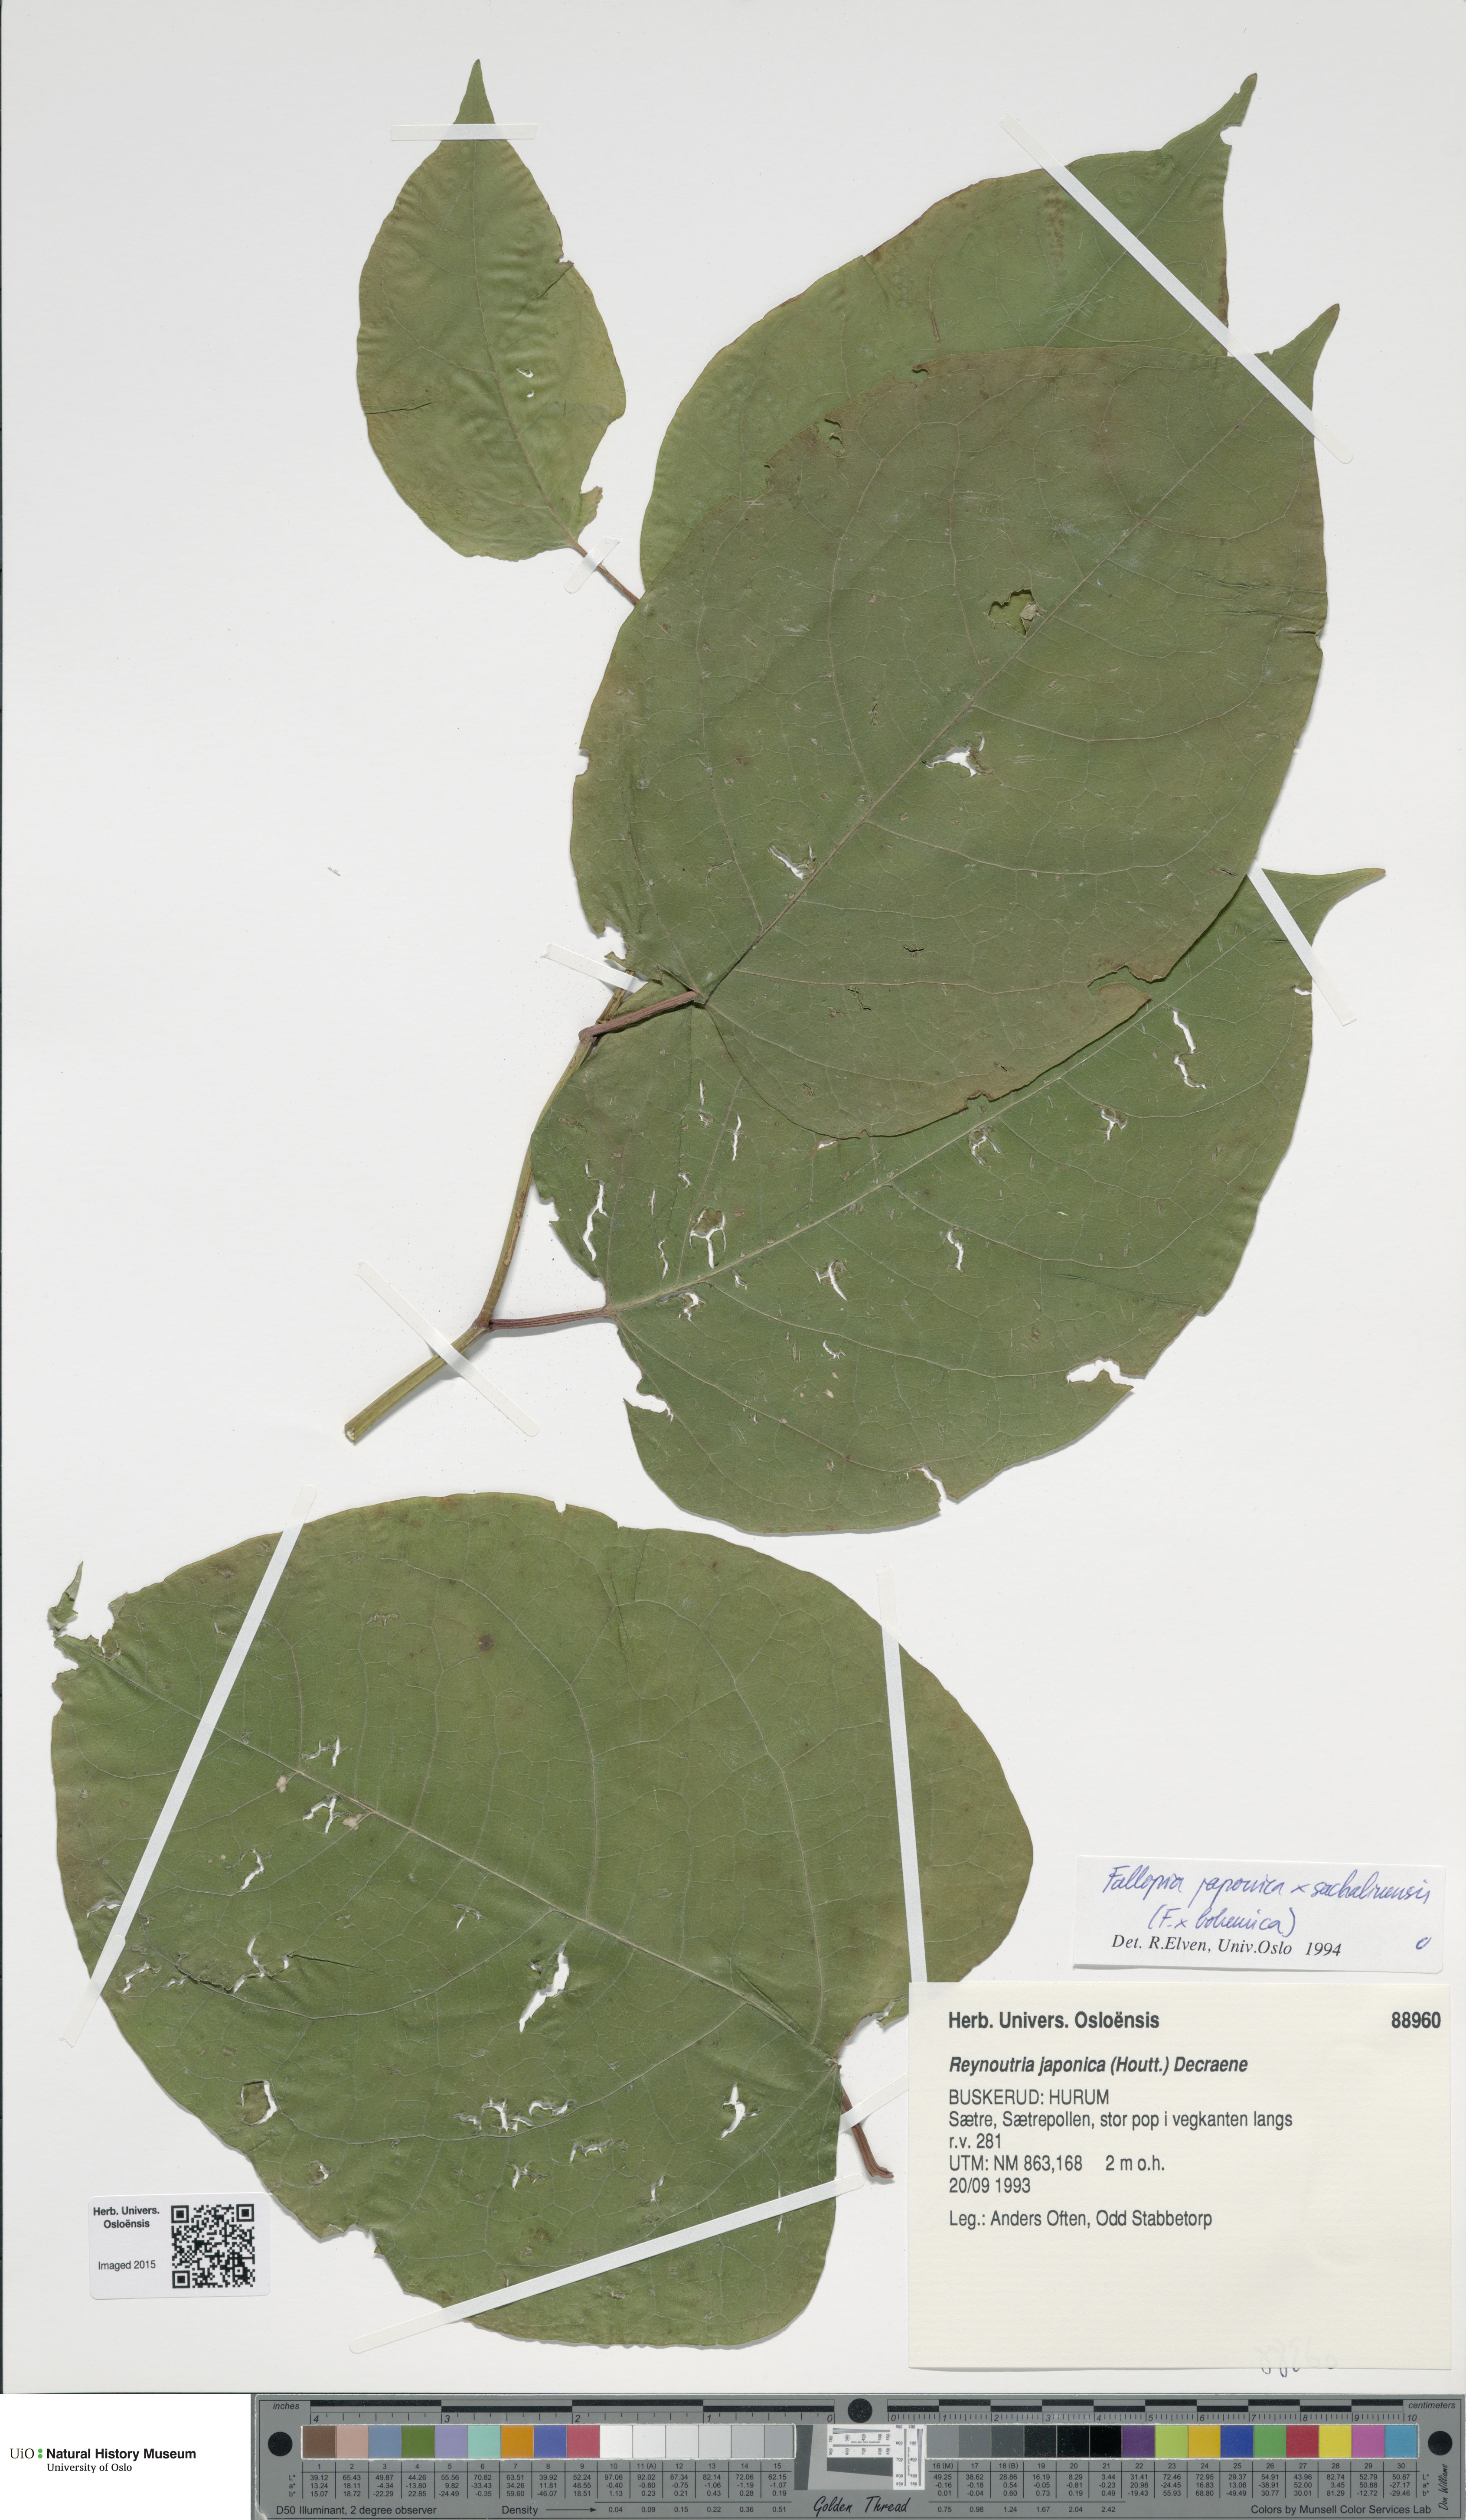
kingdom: Plantae
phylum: Tracheophyta
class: Magnoliopsida
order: Caryophyllales
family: Polygonaceae
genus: Reynoutria
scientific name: Reynoutria
